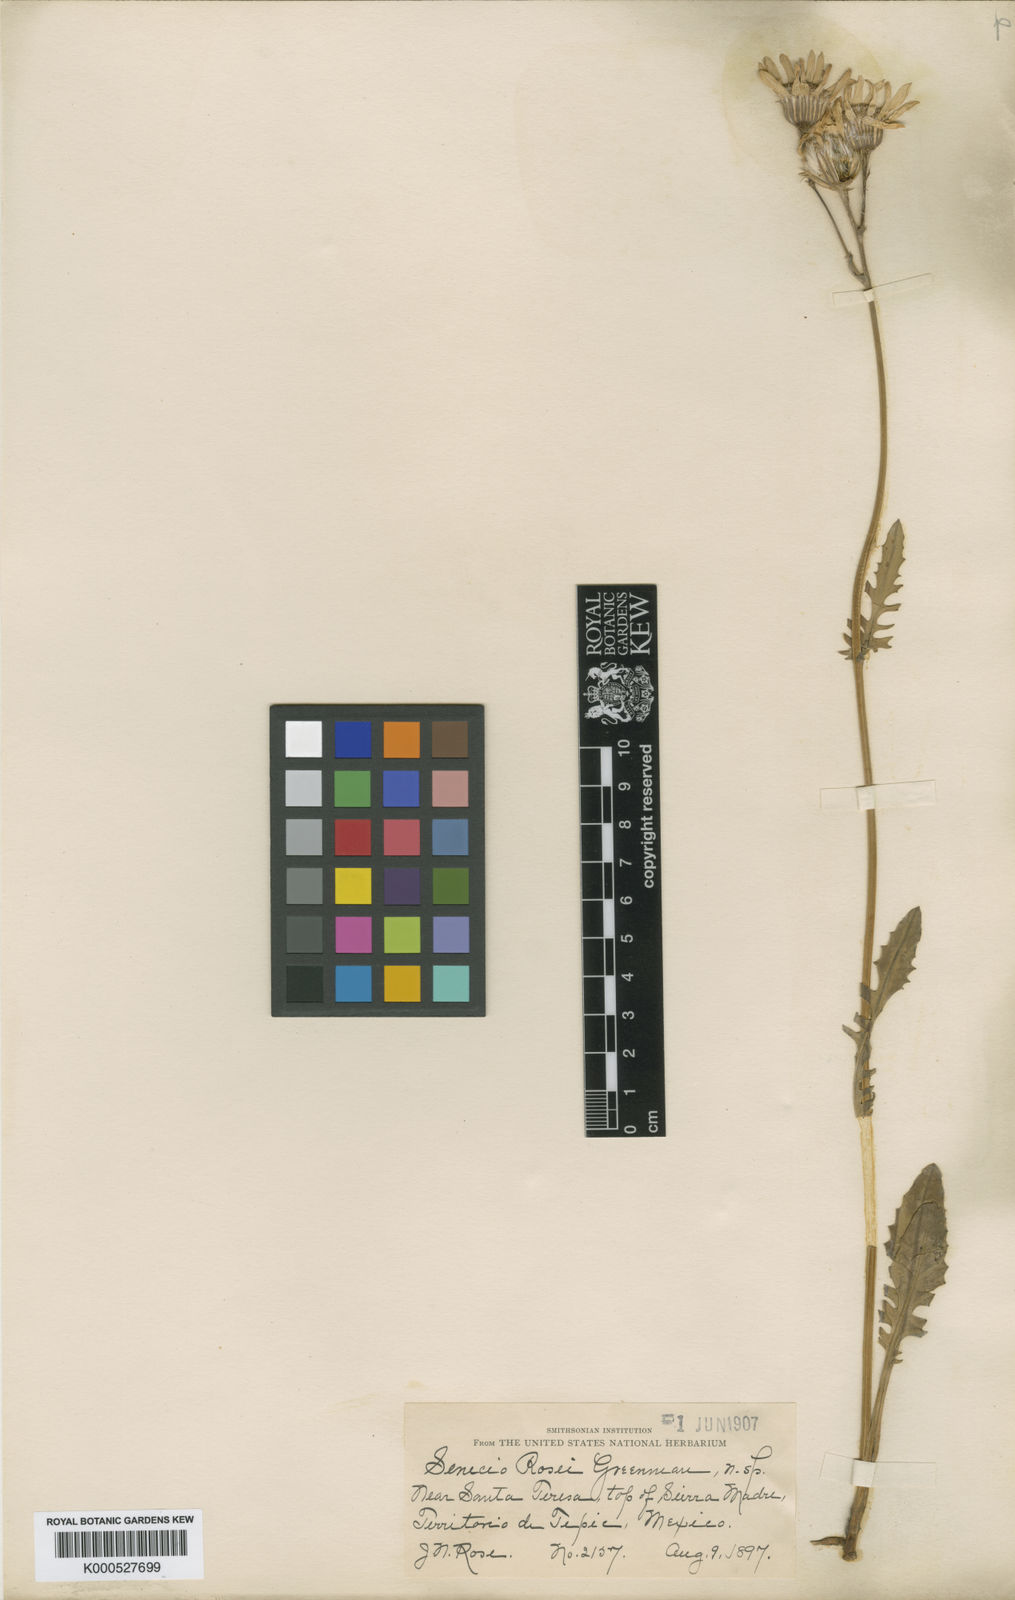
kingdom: Plantae
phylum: Tracheophyta
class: Magnoliopsida
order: Asterales
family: Asteraceae
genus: Packera
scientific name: Packera
